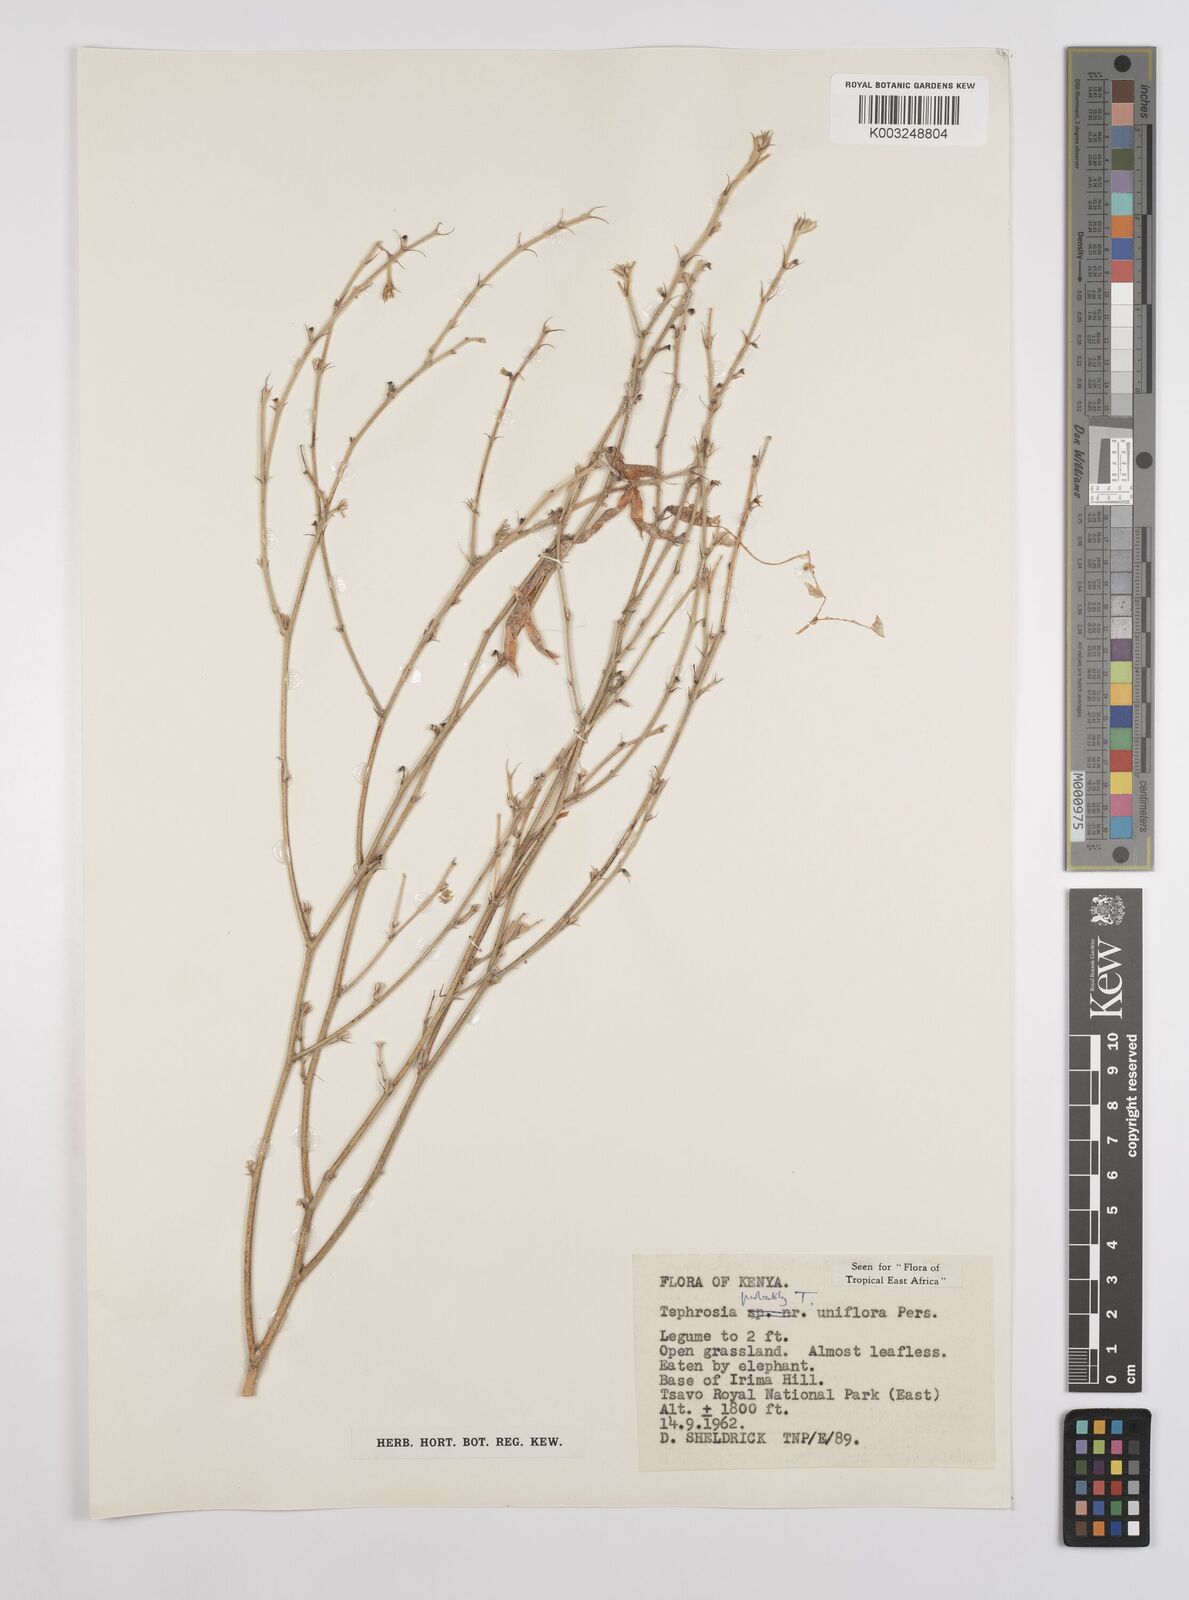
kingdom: Plantae
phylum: Tracheophyta
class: Magnoliopsida
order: Fabales
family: Fabaceae
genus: Tephrosia
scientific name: Tephrosia uniflora
